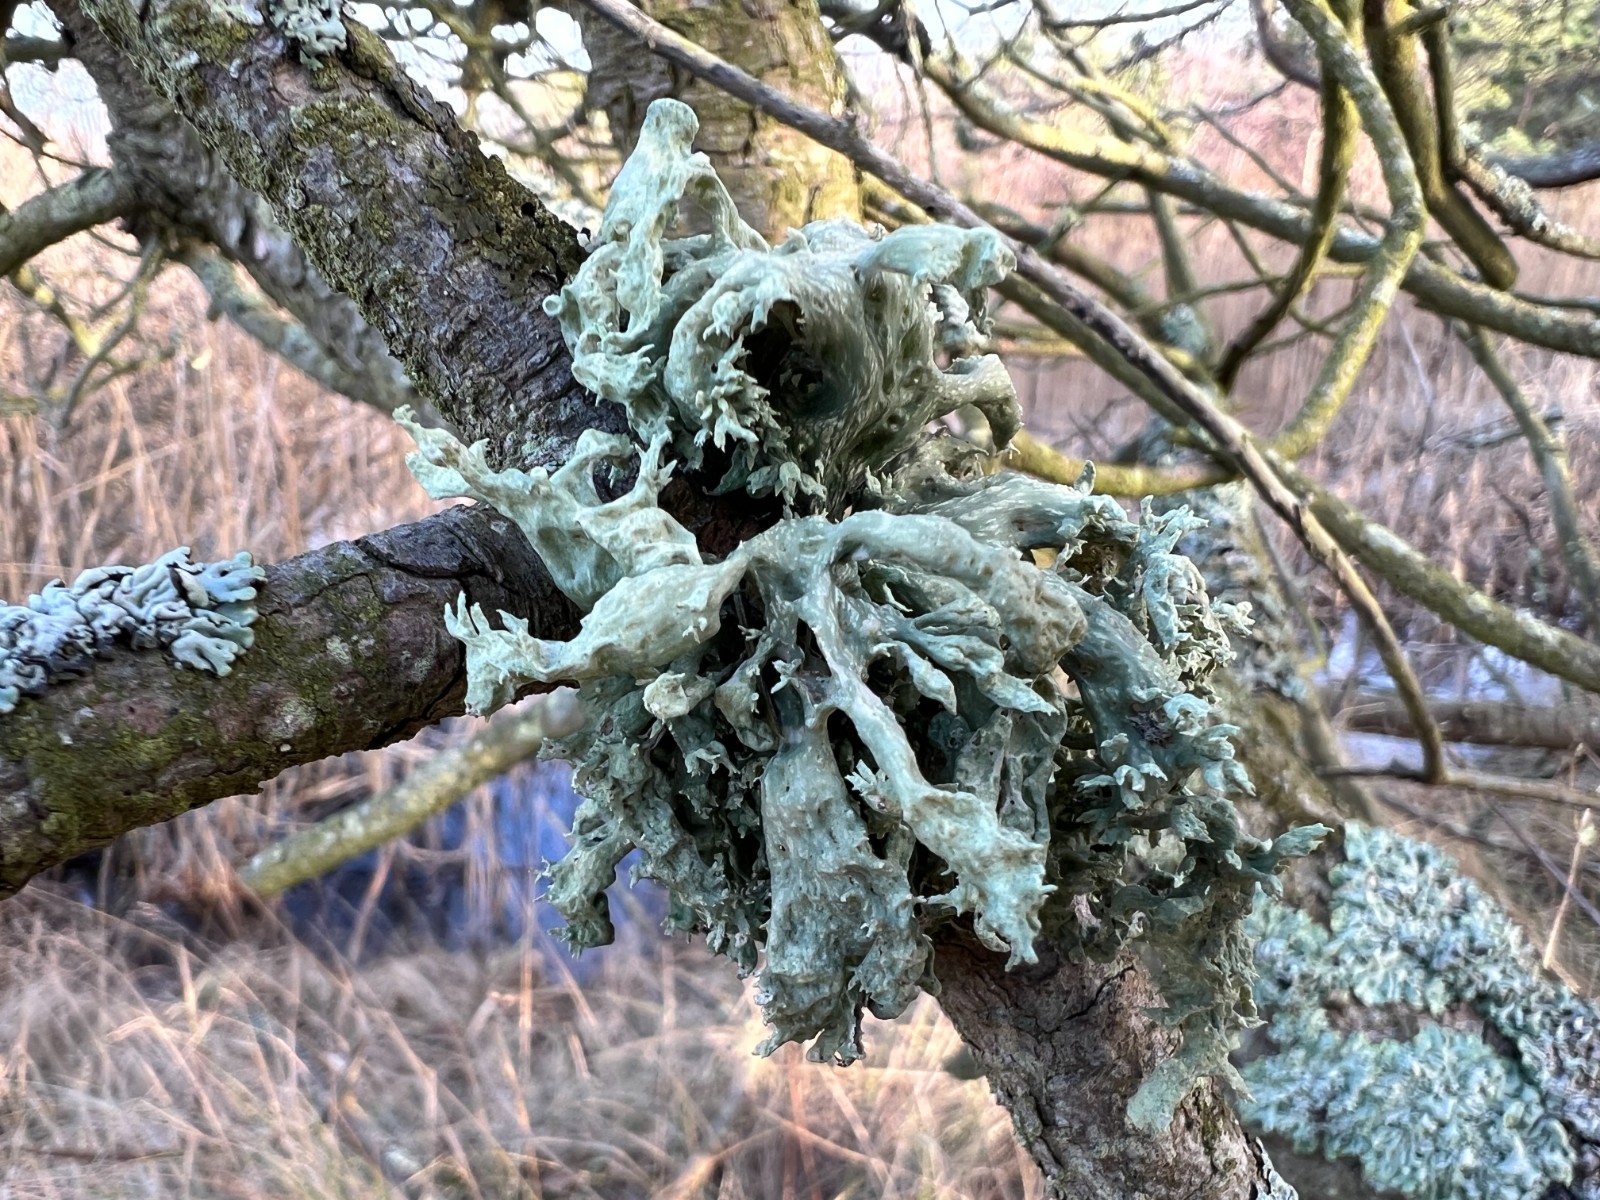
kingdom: Fungi
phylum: Ascomycota
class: Lecanoromycetes
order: Lecanorales
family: Ramalinaceae
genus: Ramalina
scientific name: Ramalina fastigiata
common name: tue-grenlav
